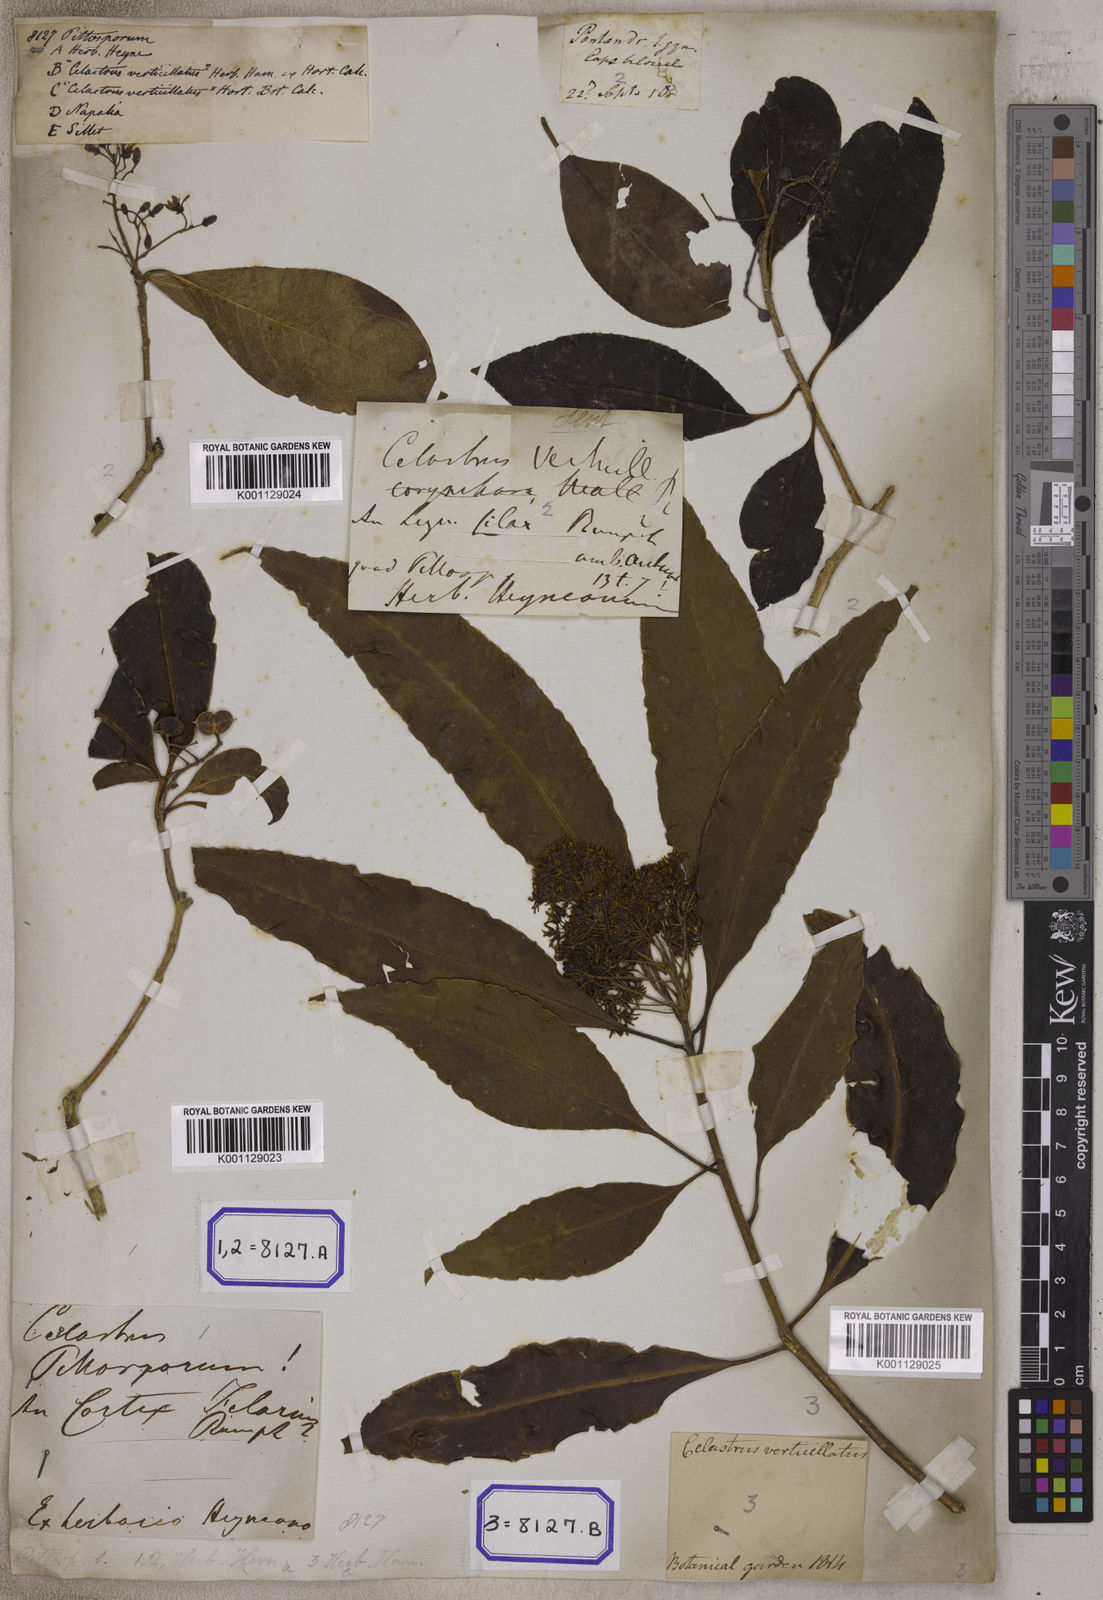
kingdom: Plantae
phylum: Tracheophyta
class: Magnoliopsida
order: Apiales
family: Pittosporaceae
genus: Pittosporum
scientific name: Pittosporum
